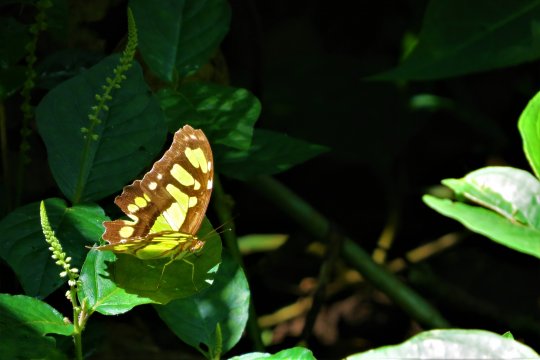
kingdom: Animalia
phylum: Arthropoda
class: Insecta
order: Lepidoptera
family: Nymphalidae
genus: Siproeta
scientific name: Siproeta stelenes
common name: Malachite
